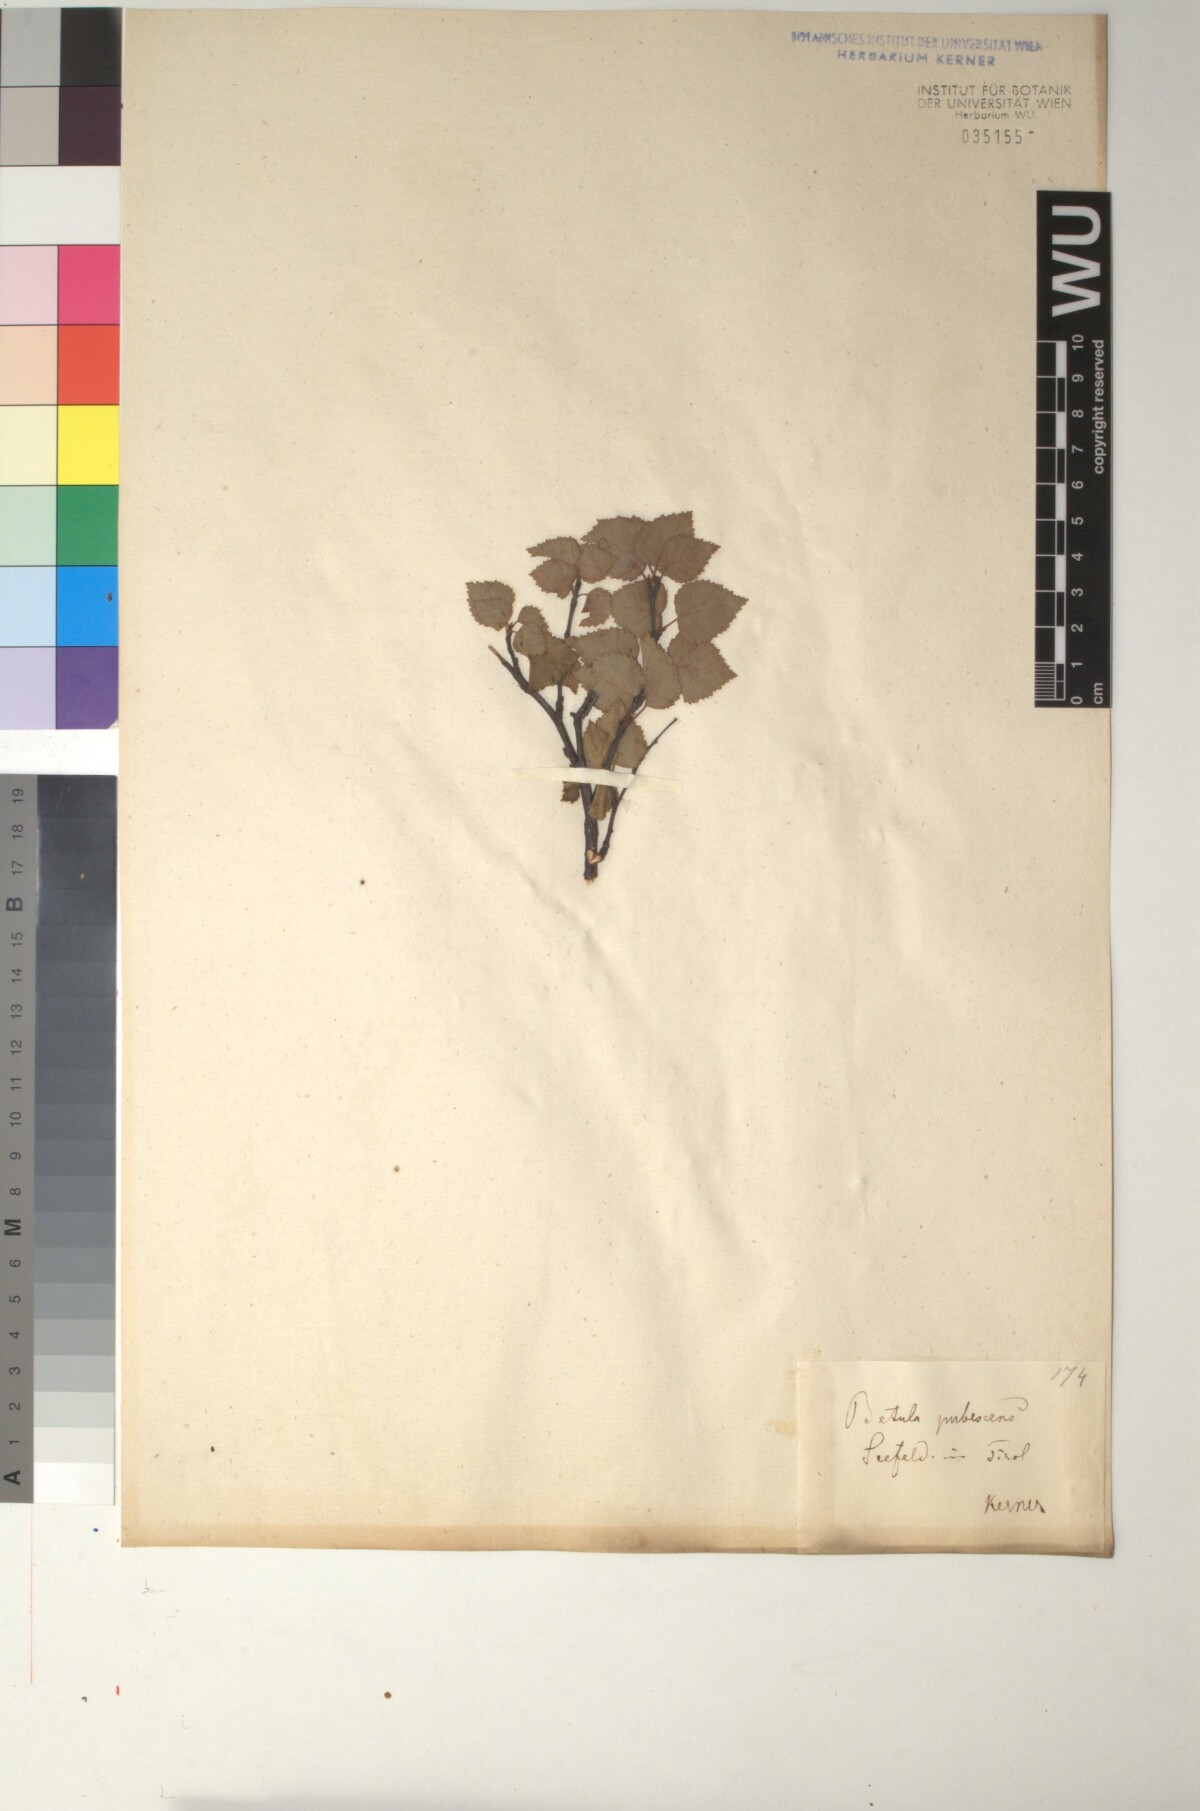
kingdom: Plantae
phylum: Tracheophyta
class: Magnoliopsida
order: Fagales
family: Betulaceae
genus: Betula
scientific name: Betula pubescens
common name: Downy birch
